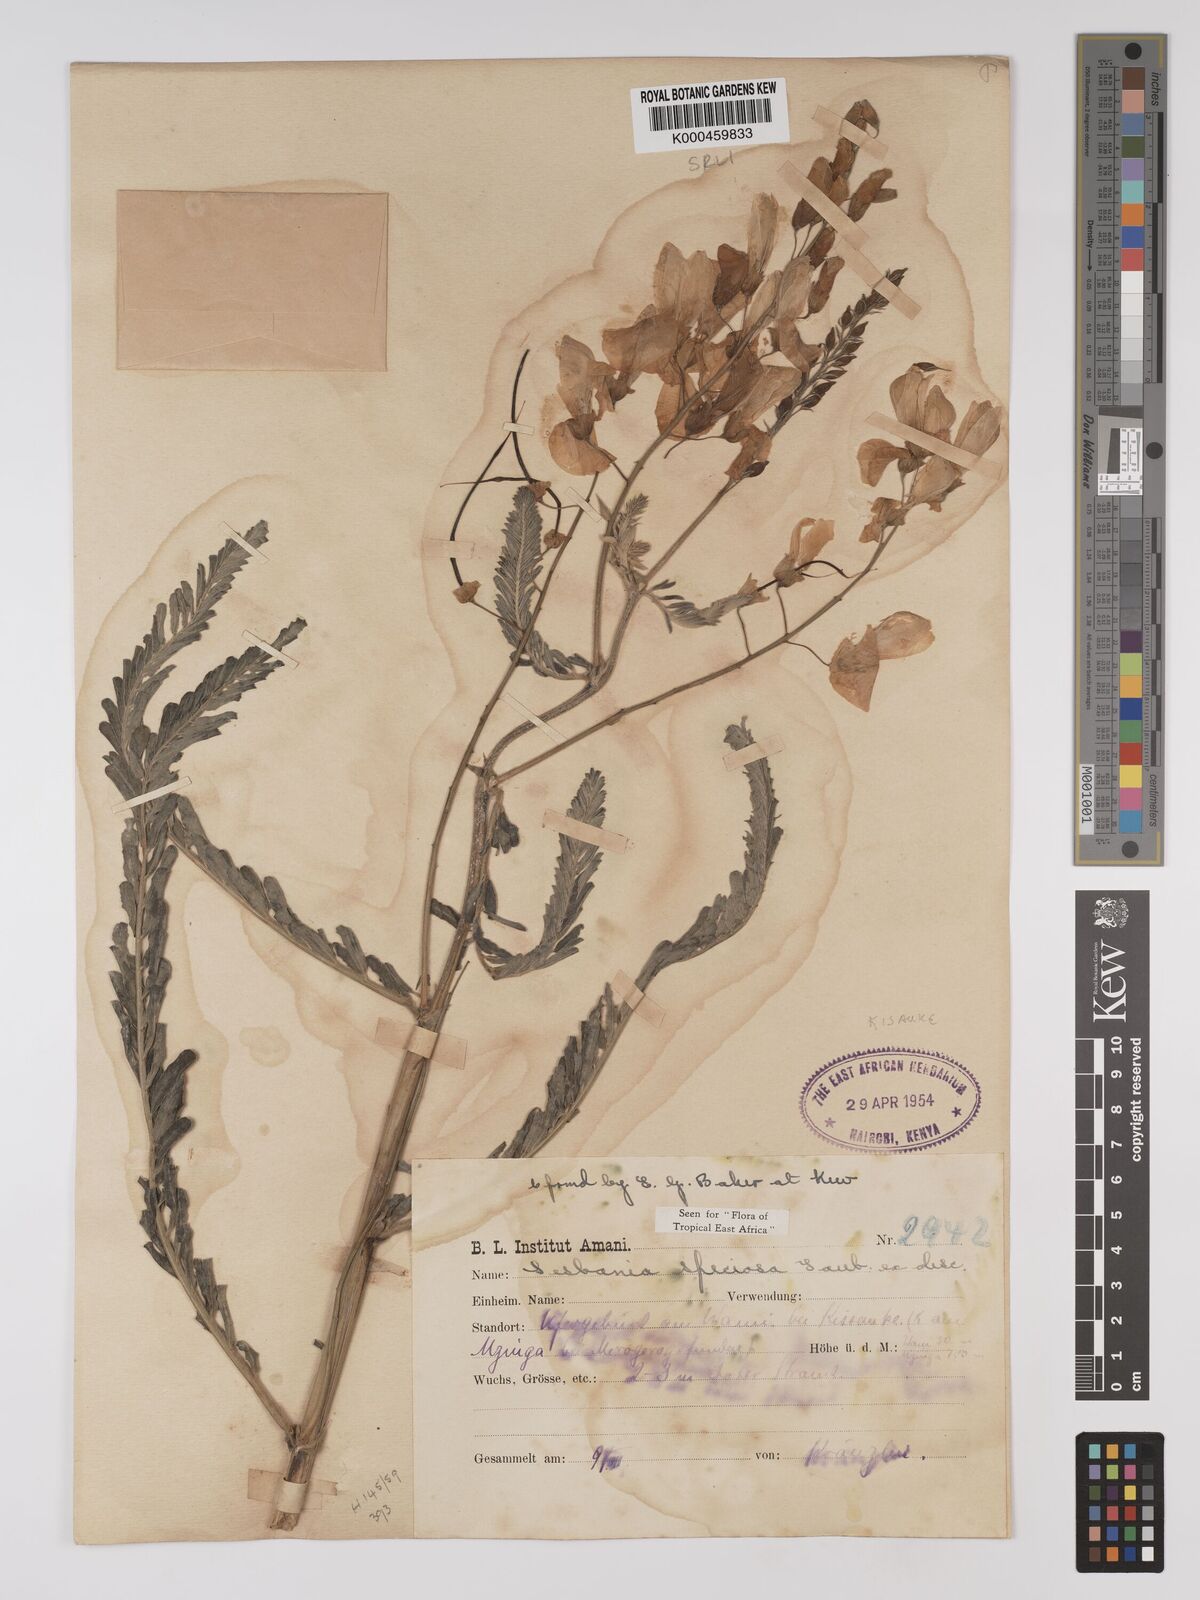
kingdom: Plantae
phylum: Tracheophyta
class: Magnoliopsida
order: Fabales
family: Fabaceae
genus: Sesbania
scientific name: Sesbania
